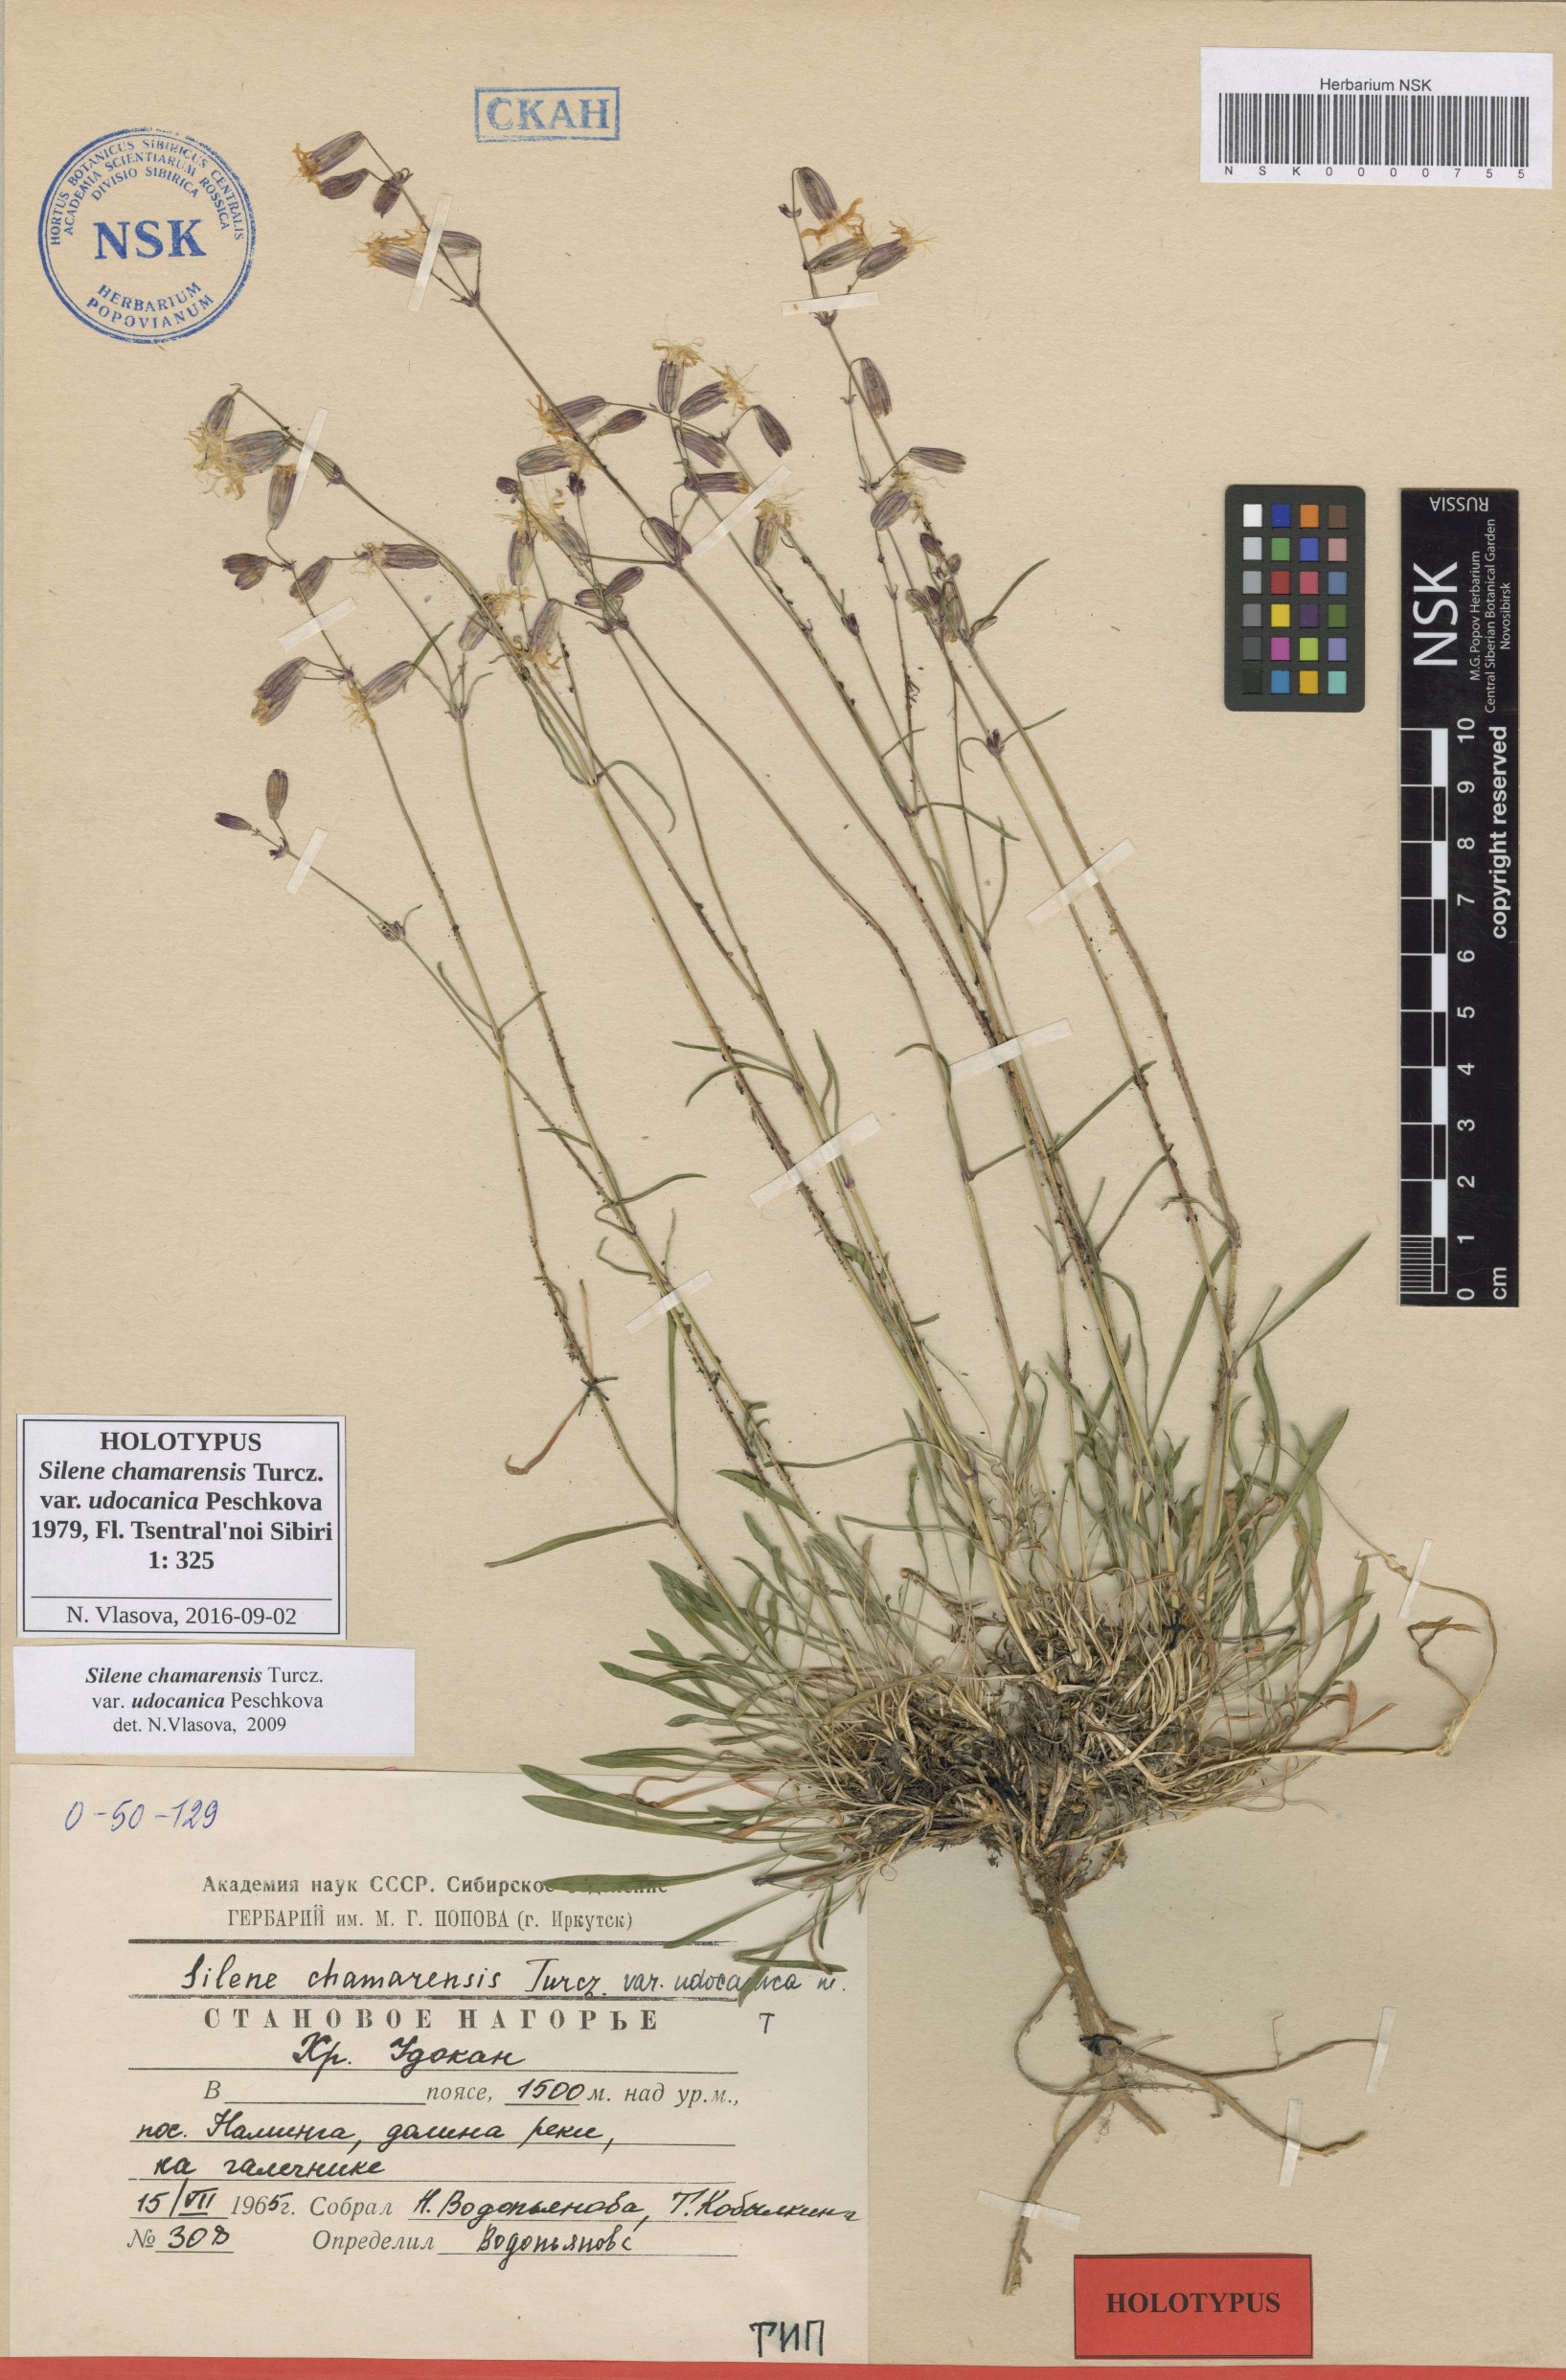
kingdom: Plantae
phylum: Tracheophyta
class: Magnoliopsida
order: Caryophyllales
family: Caryophyllaceae
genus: Silene
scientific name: Silene chamarensis
